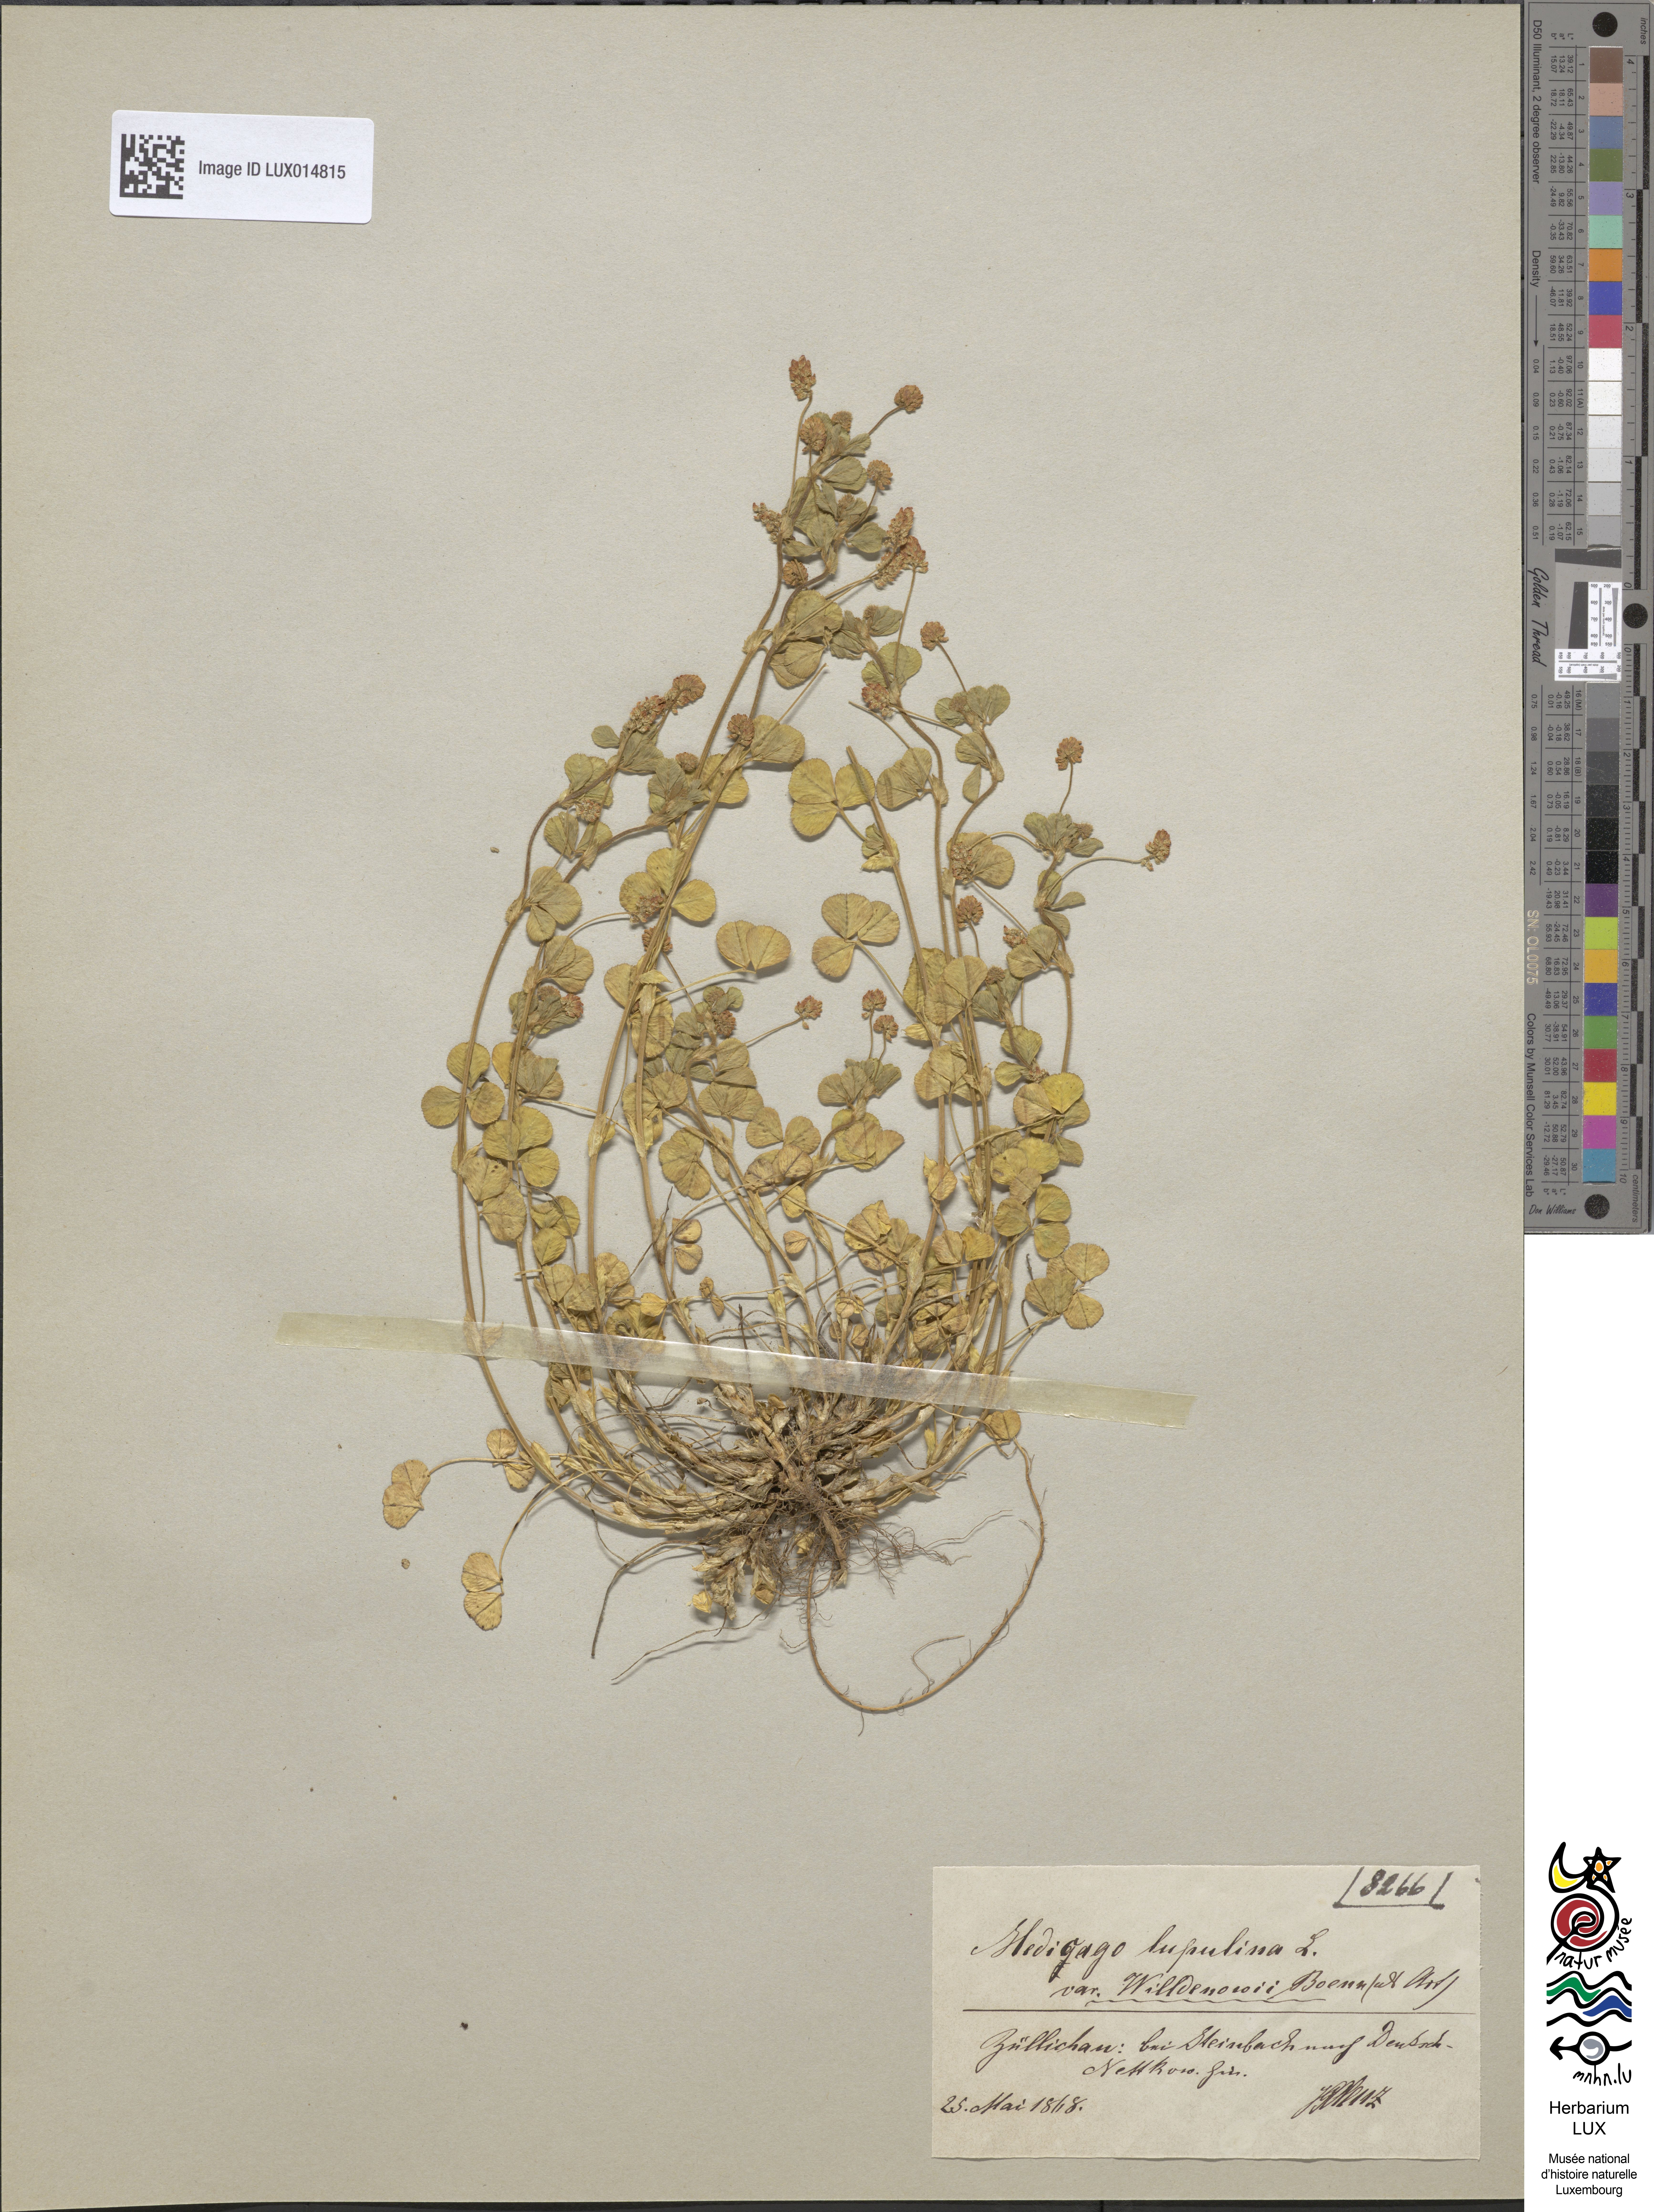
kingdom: Plantae
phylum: Tracheophyta
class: Magnoliopsida
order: Fabales
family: Fabaceae
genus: Medicago
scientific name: Medicago lupulina
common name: Black medick
